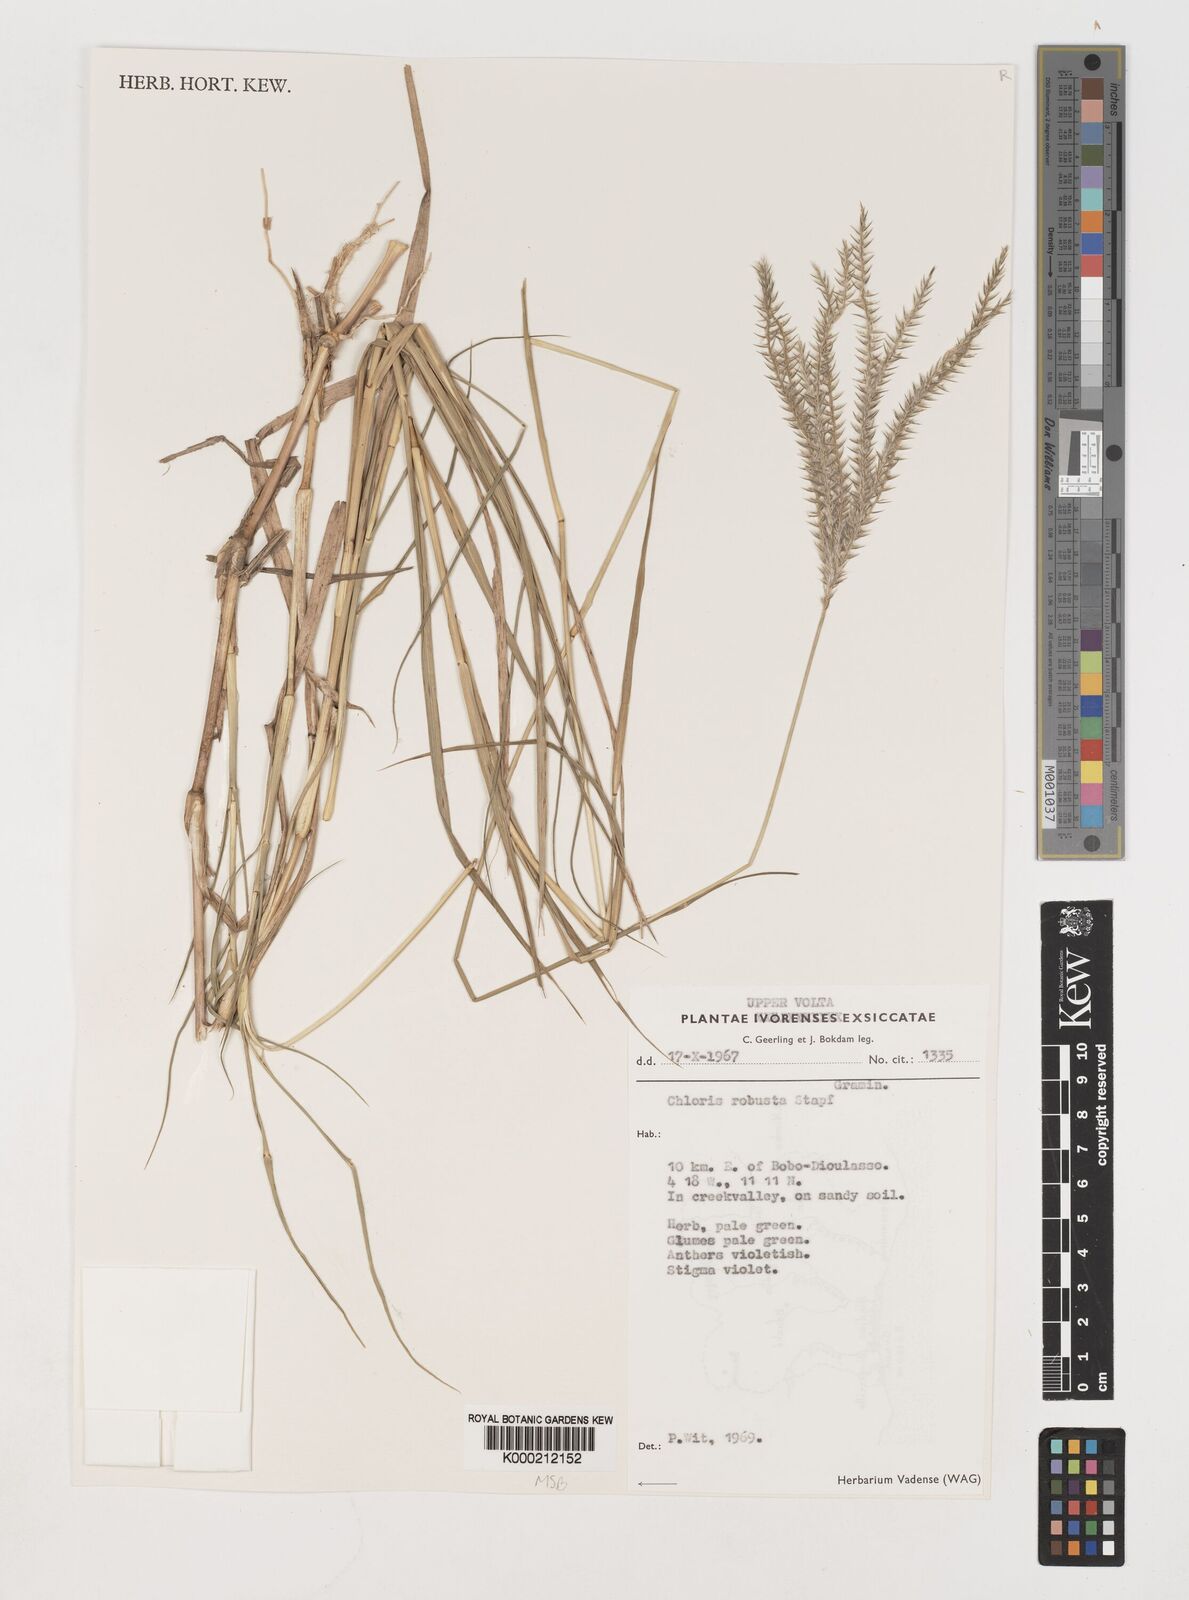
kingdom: Plantae
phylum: Tracheophyta
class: Liliopsida
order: Poales
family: Poaceae
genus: Chloris
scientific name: Chloris robusta
